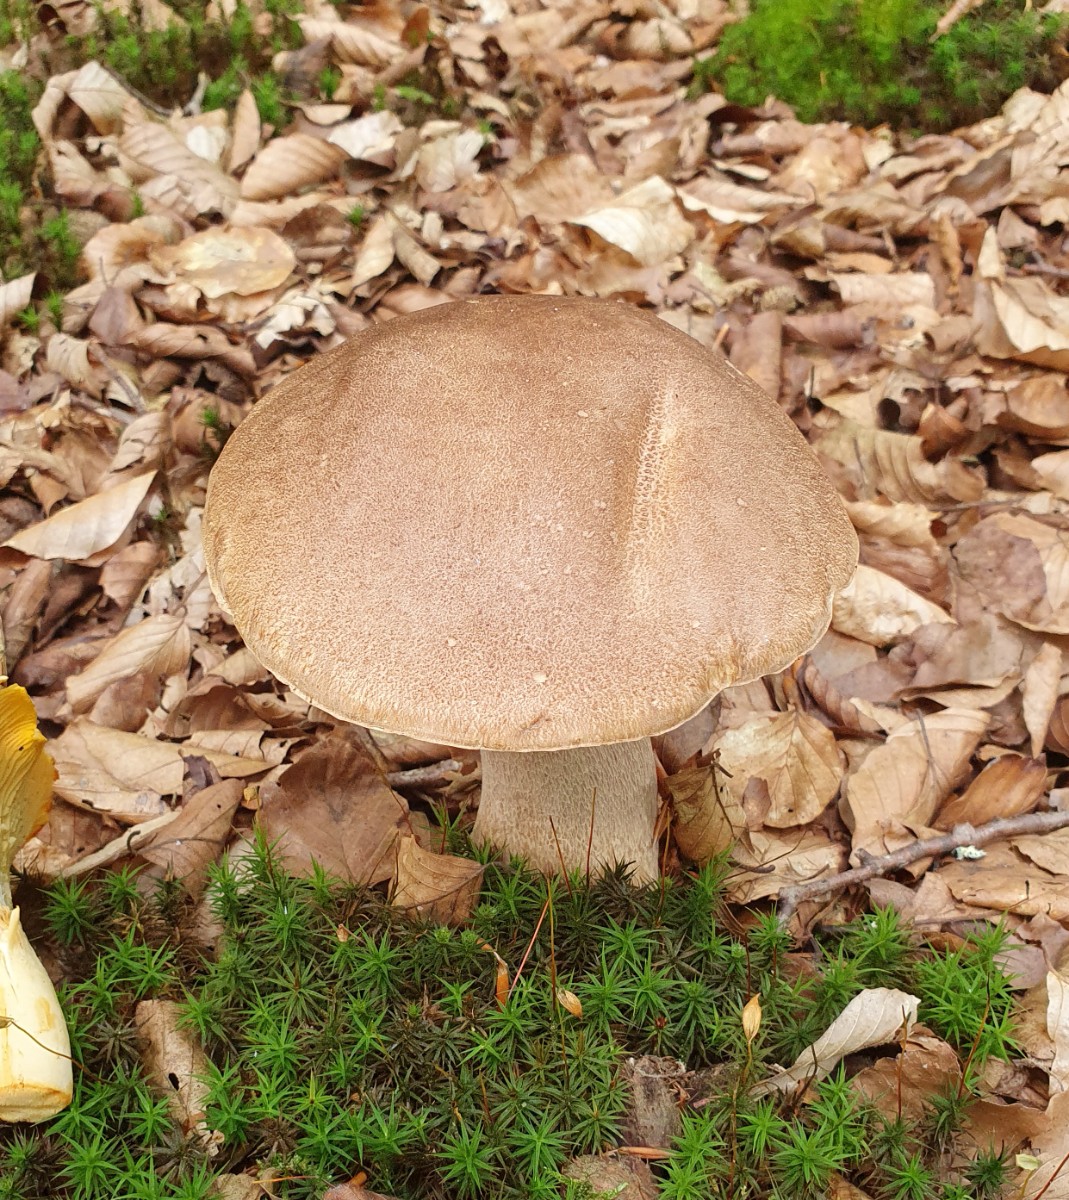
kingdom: Fungi
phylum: Basidiomycota
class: Agaricomycetes
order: Boletales
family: Boletaceae
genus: Boletus
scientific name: Boletus reticulatus
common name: sommer-rørhat
